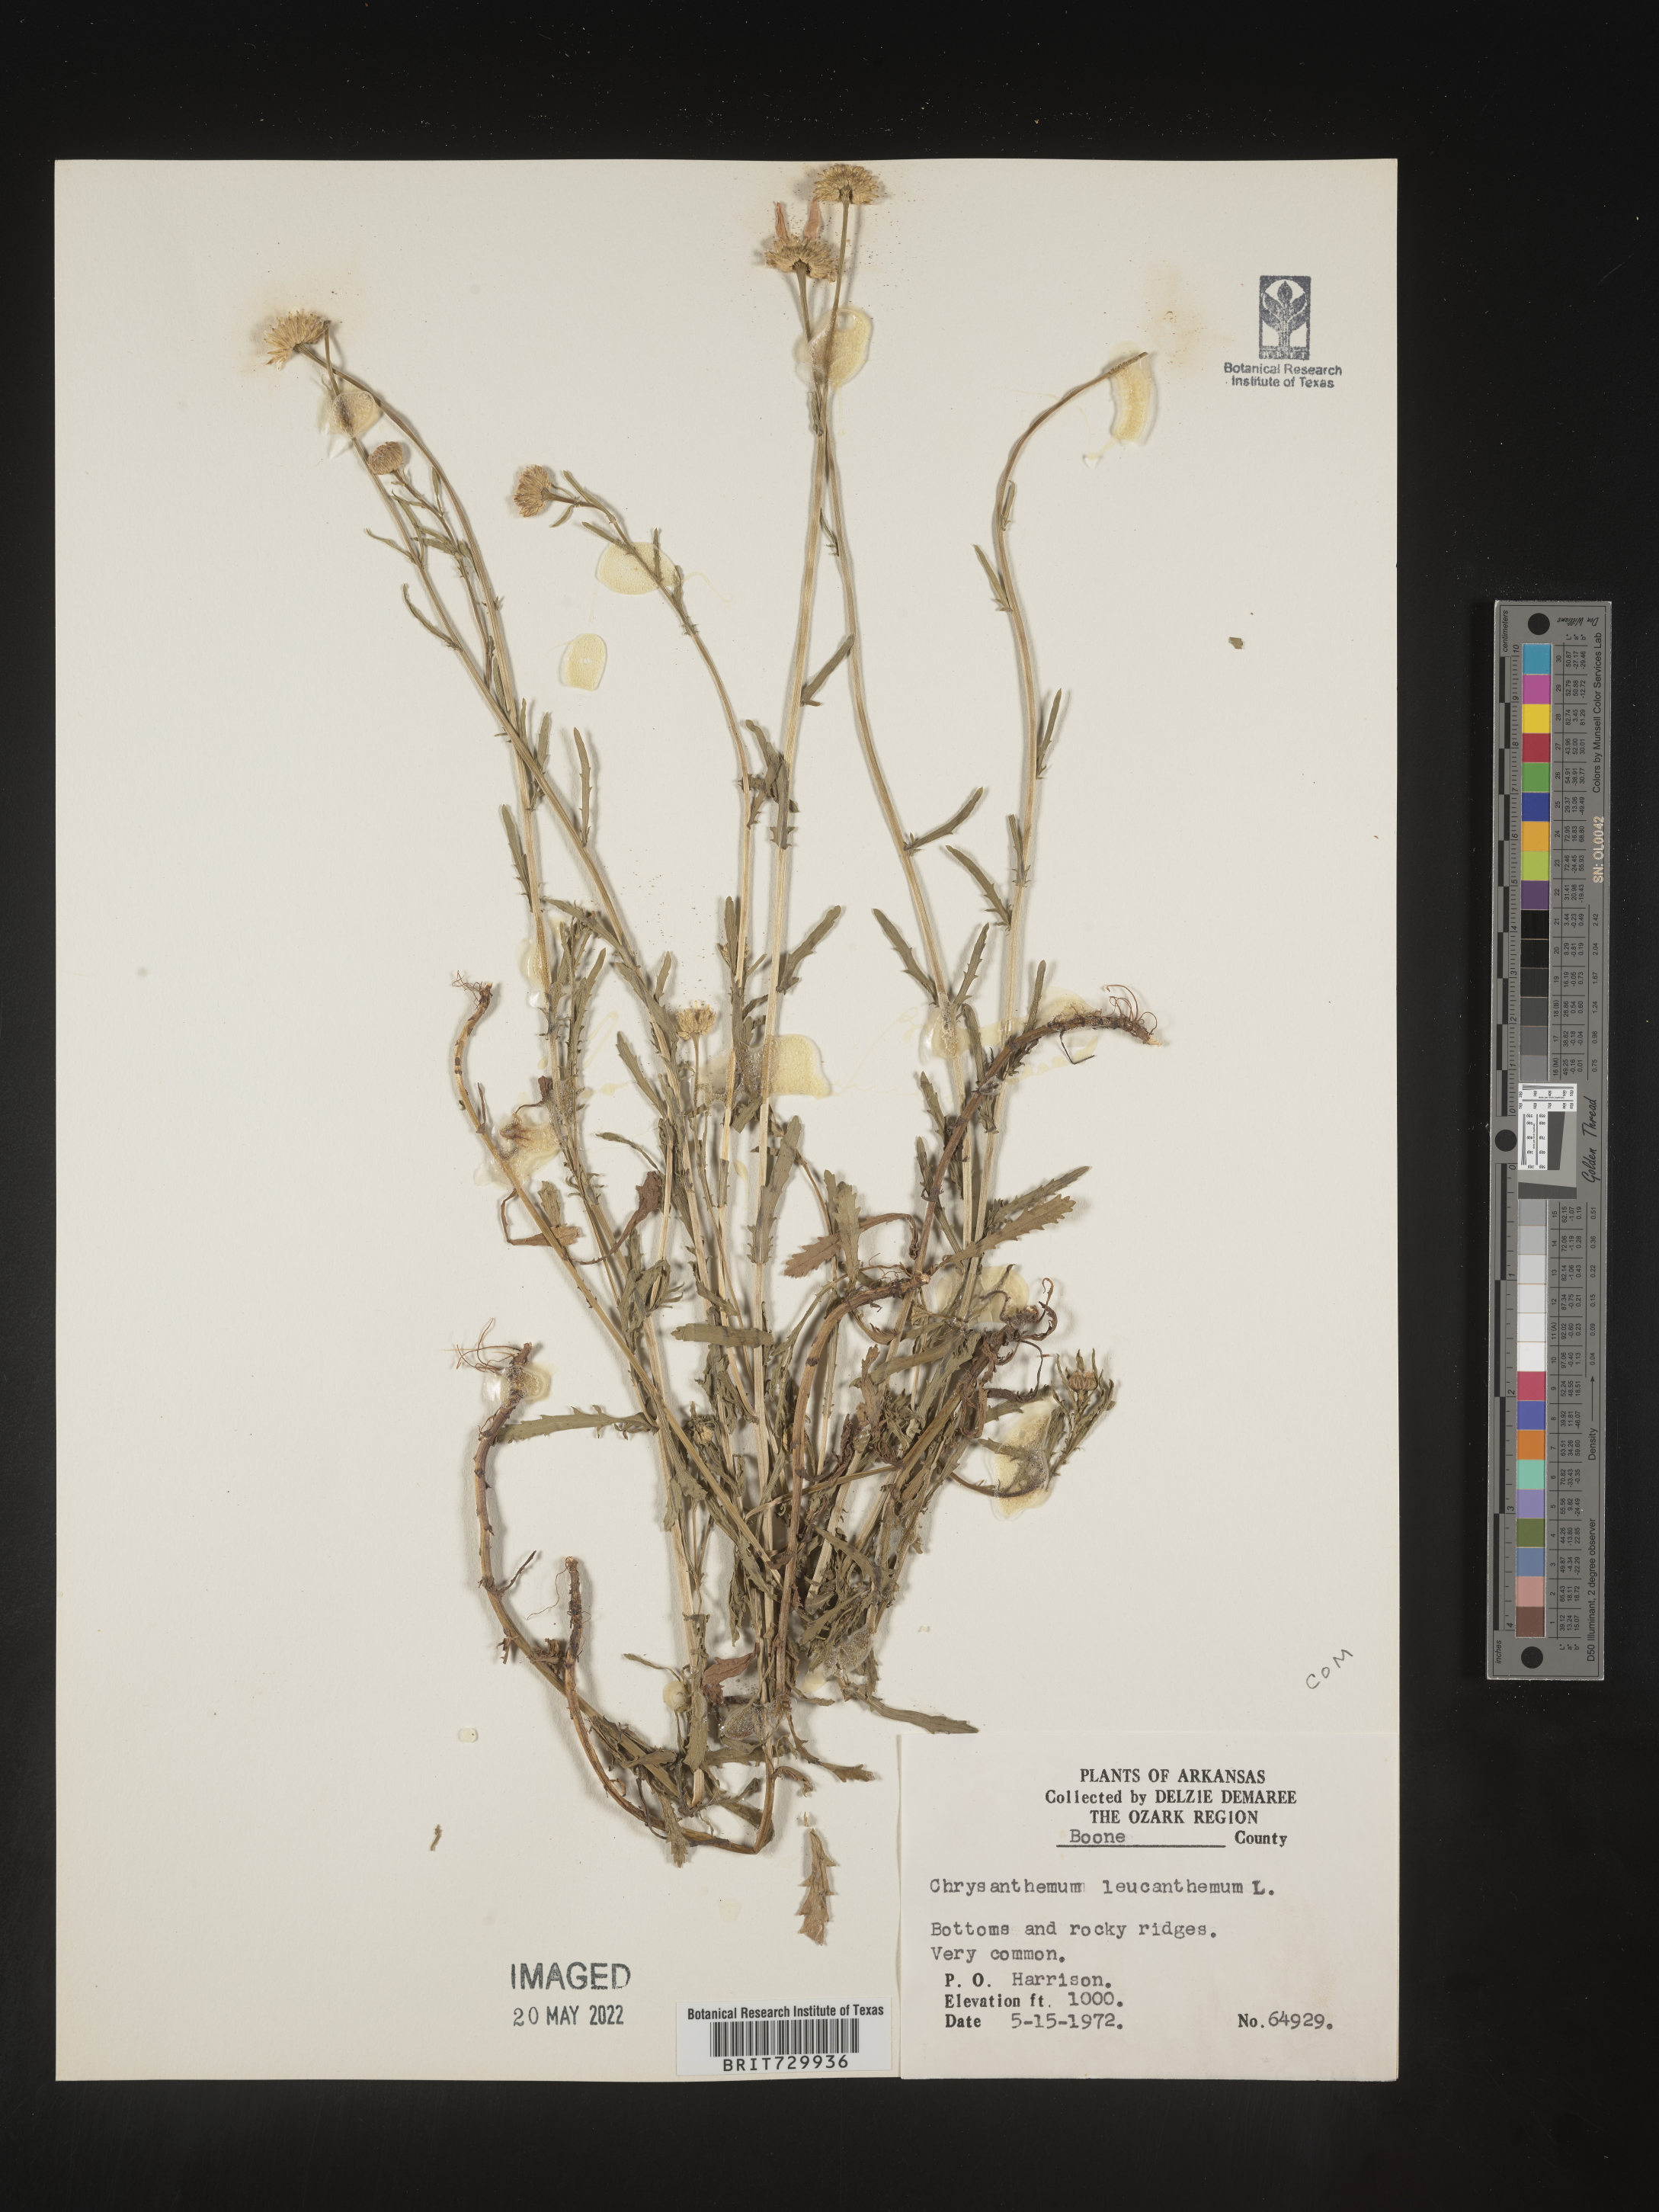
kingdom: Plantae
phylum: Tracheophyta
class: Magnoliopsida
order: Asterales
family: Asteraceae
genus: Leucanthemum
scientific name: Leucanthemum vulgare
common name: Oxeye daisy
